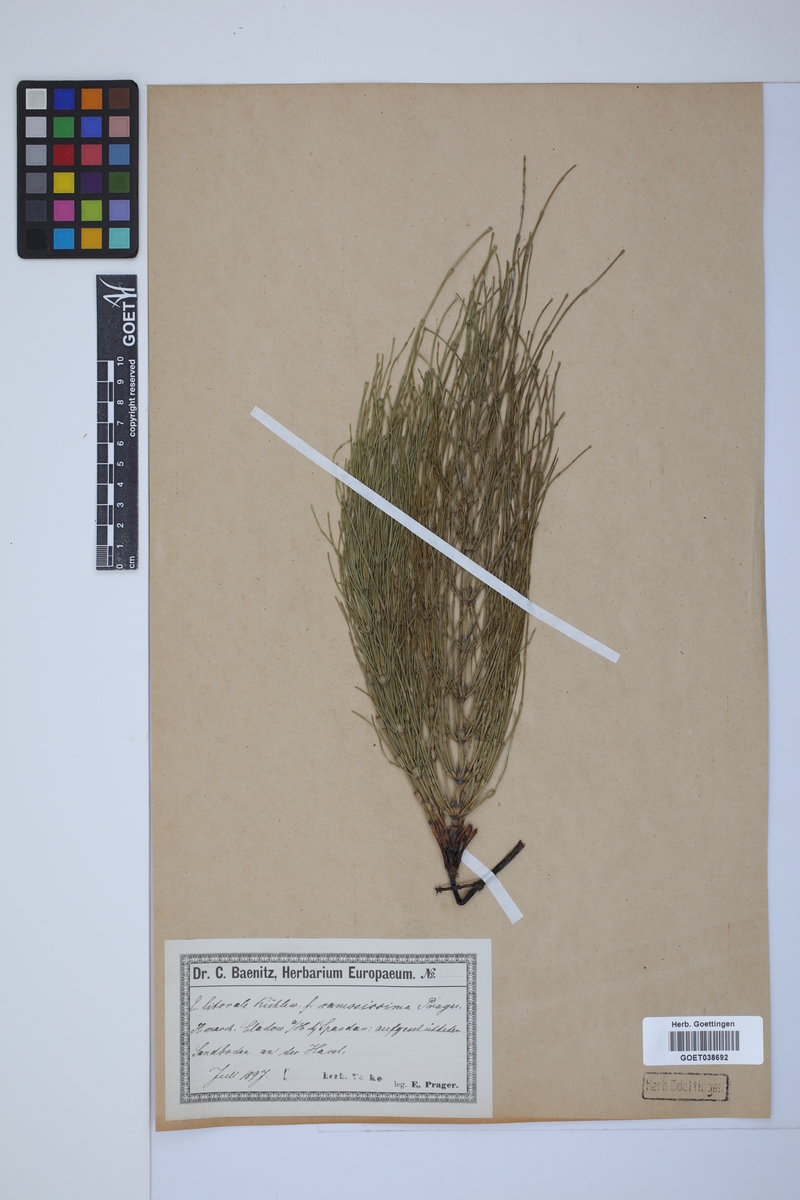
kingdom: Plantae
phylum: Tracheophyta
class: Polypodiopsida
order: Equisetales
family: Equisetaceae
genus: Equisetum
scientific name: Equisetum litorale
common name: Littoral horsetail
